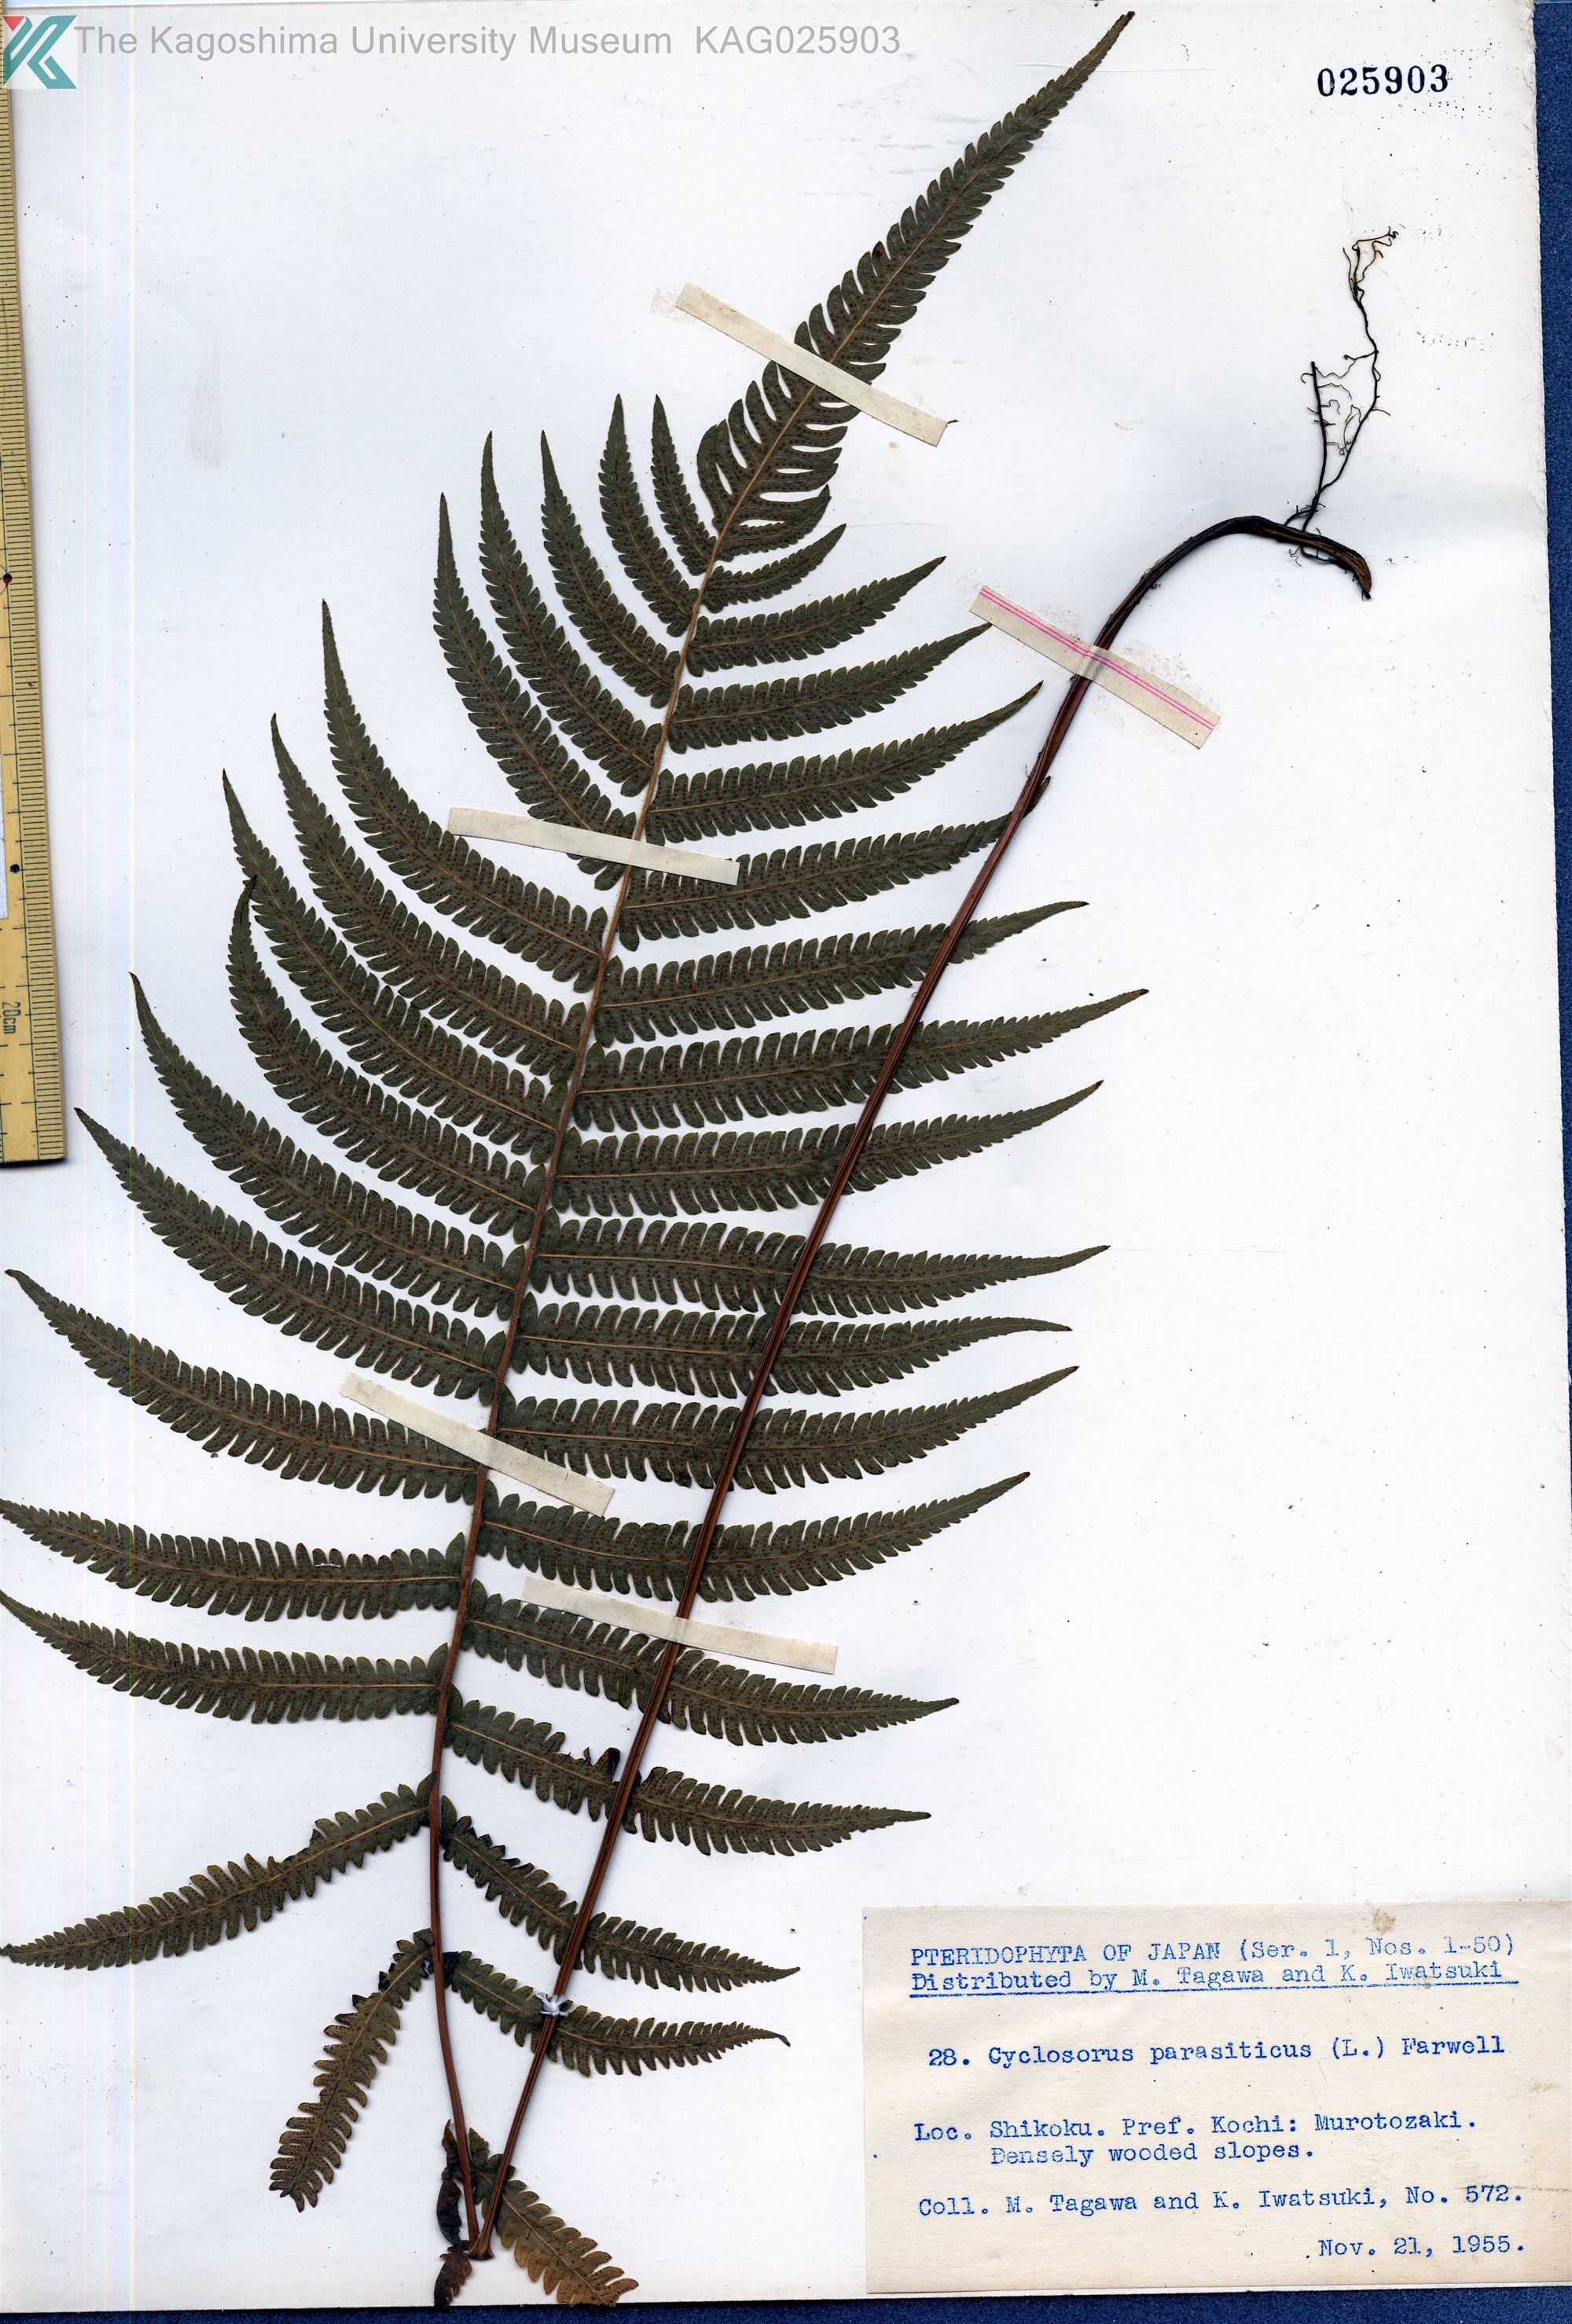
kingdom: Plantae
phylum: Tracheophyta
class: Polypodiopsida
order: Polypodiales
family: Thelypteridaceae
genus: Christella
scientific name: Christella parasitica
